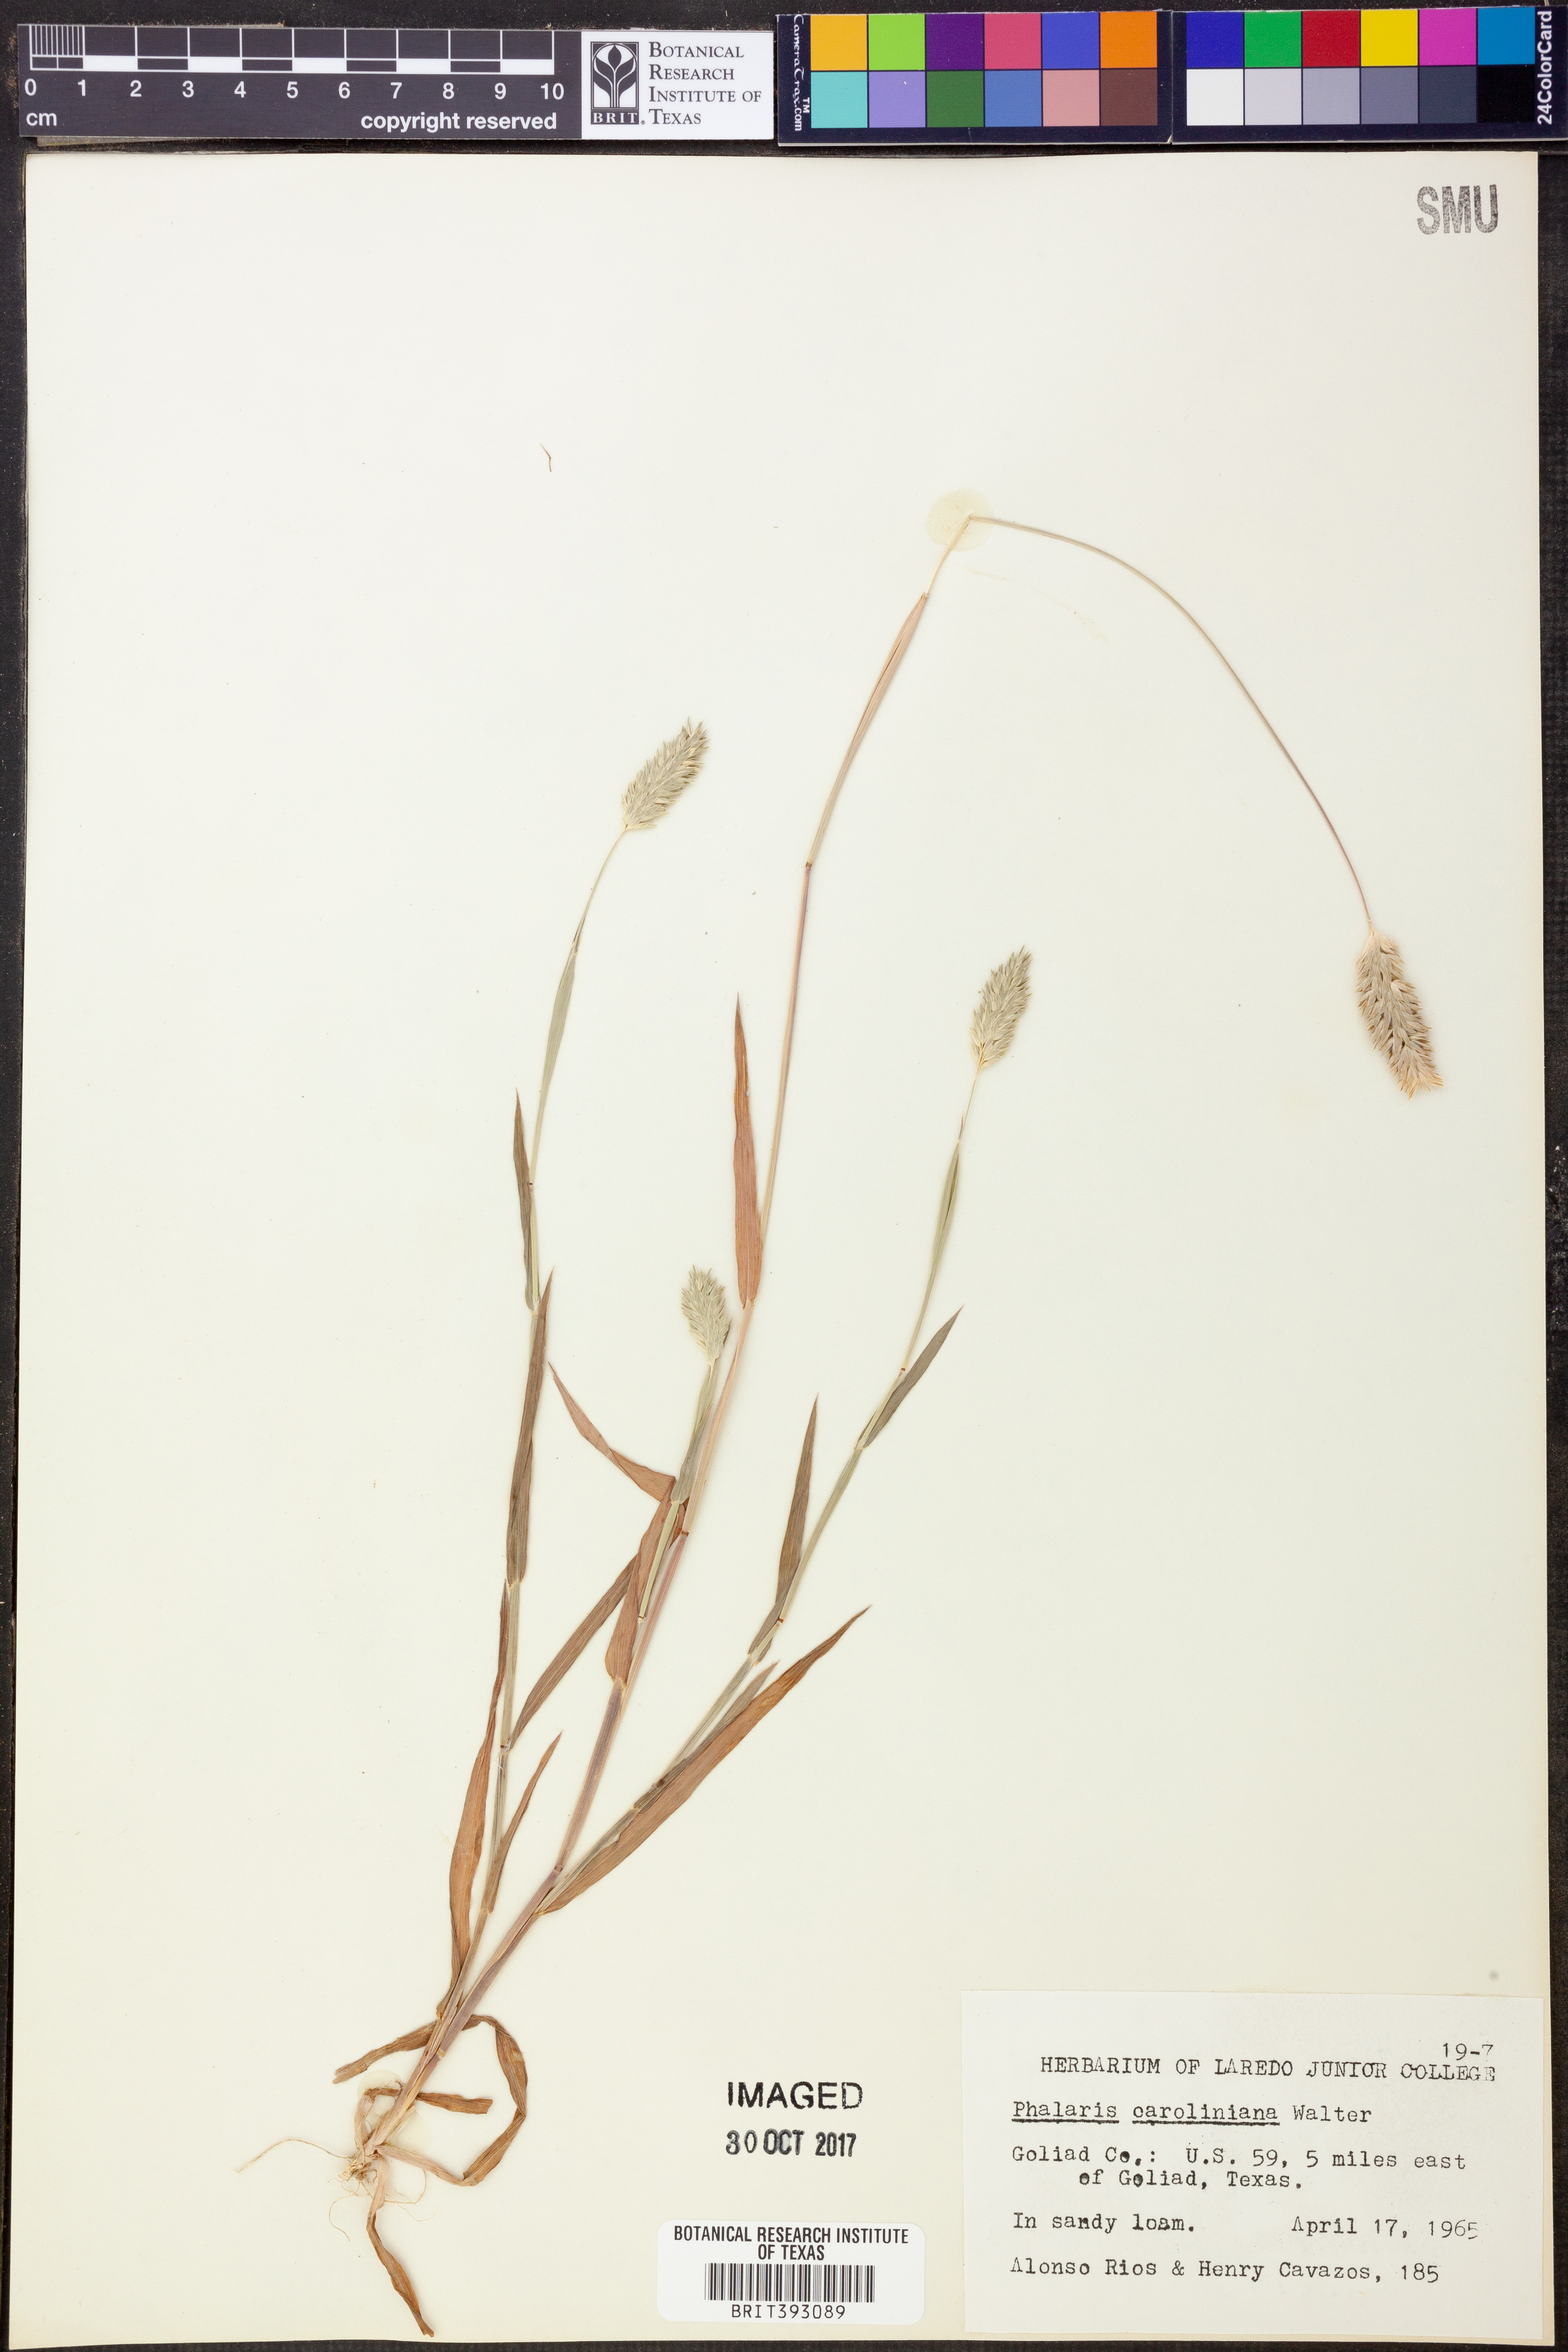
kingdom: Plantae
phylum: Tracheophyta
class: Liliopsida
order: Poales
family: Poaceae
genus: Phalaris
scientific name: Phalaris caroliniana
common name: May grass
